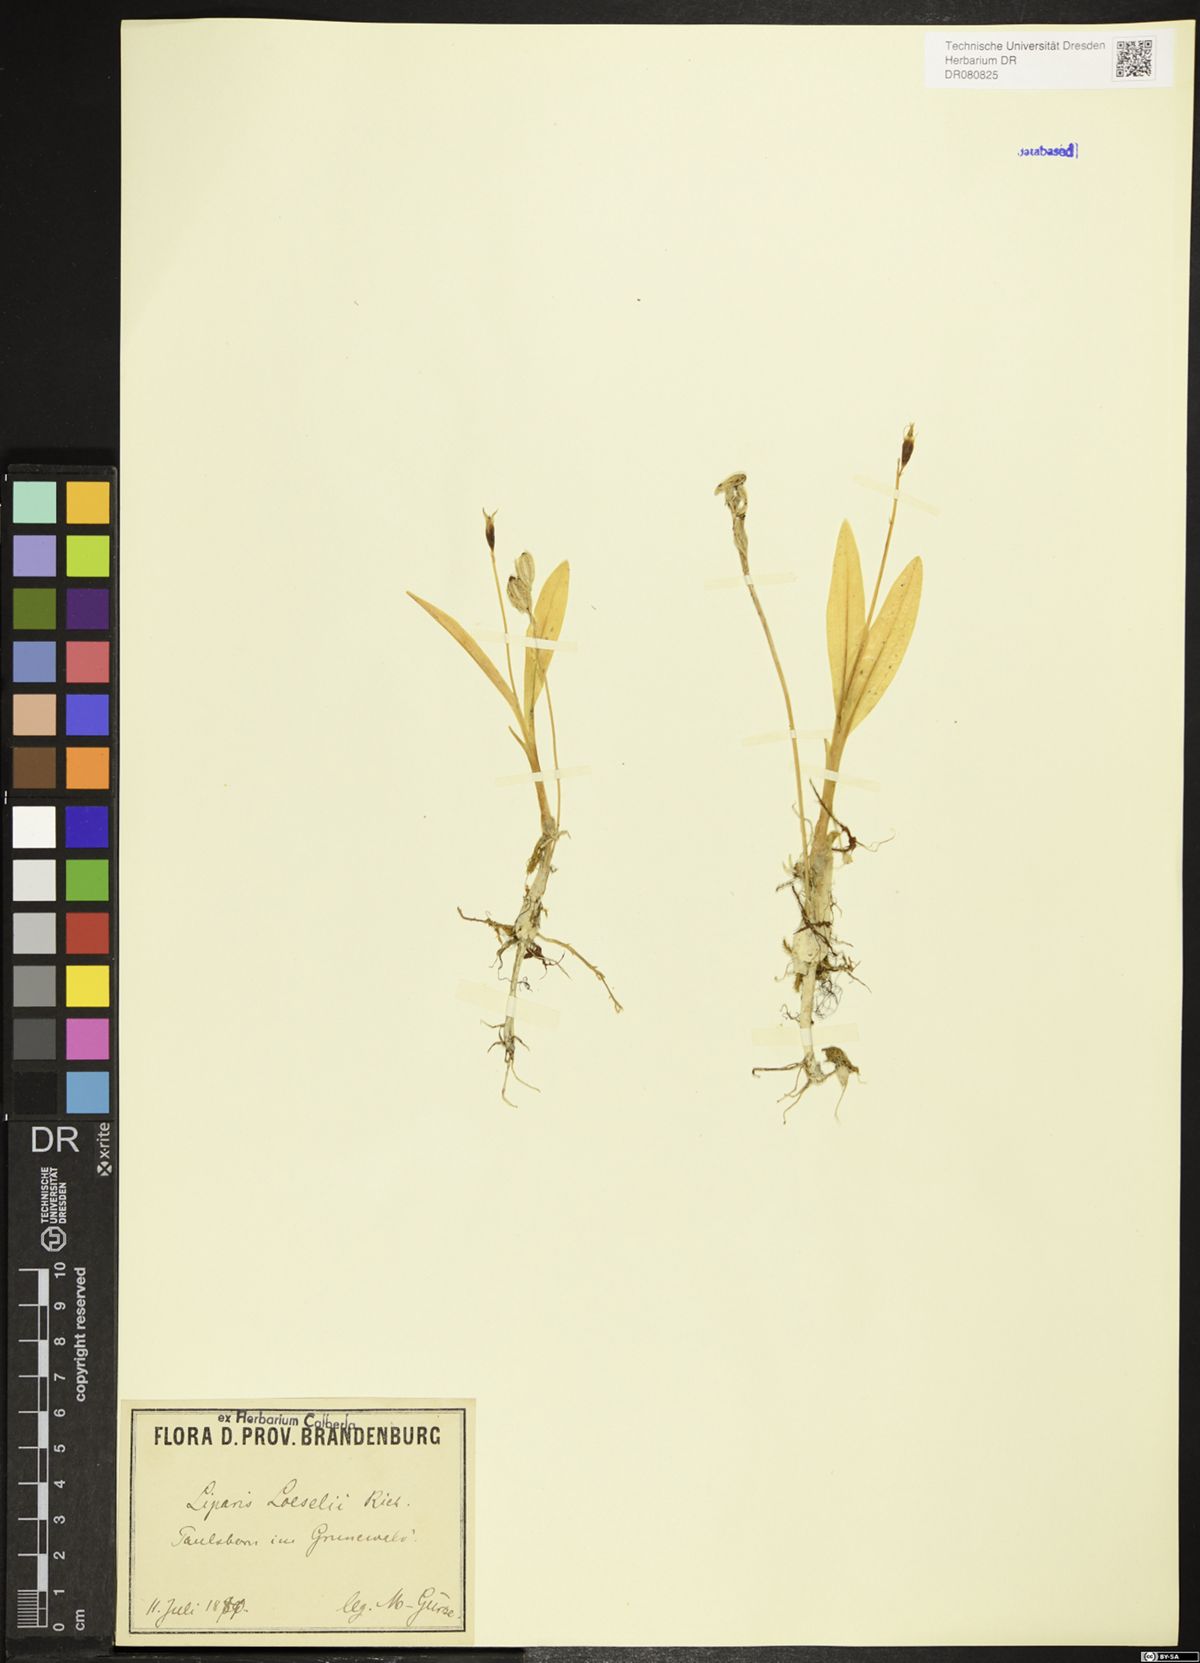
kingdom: Animalia
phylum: Arthropoda
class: Insecta
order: Coleoptera
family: Curculionidae
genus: Liparis
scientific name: Liparis loeselii
